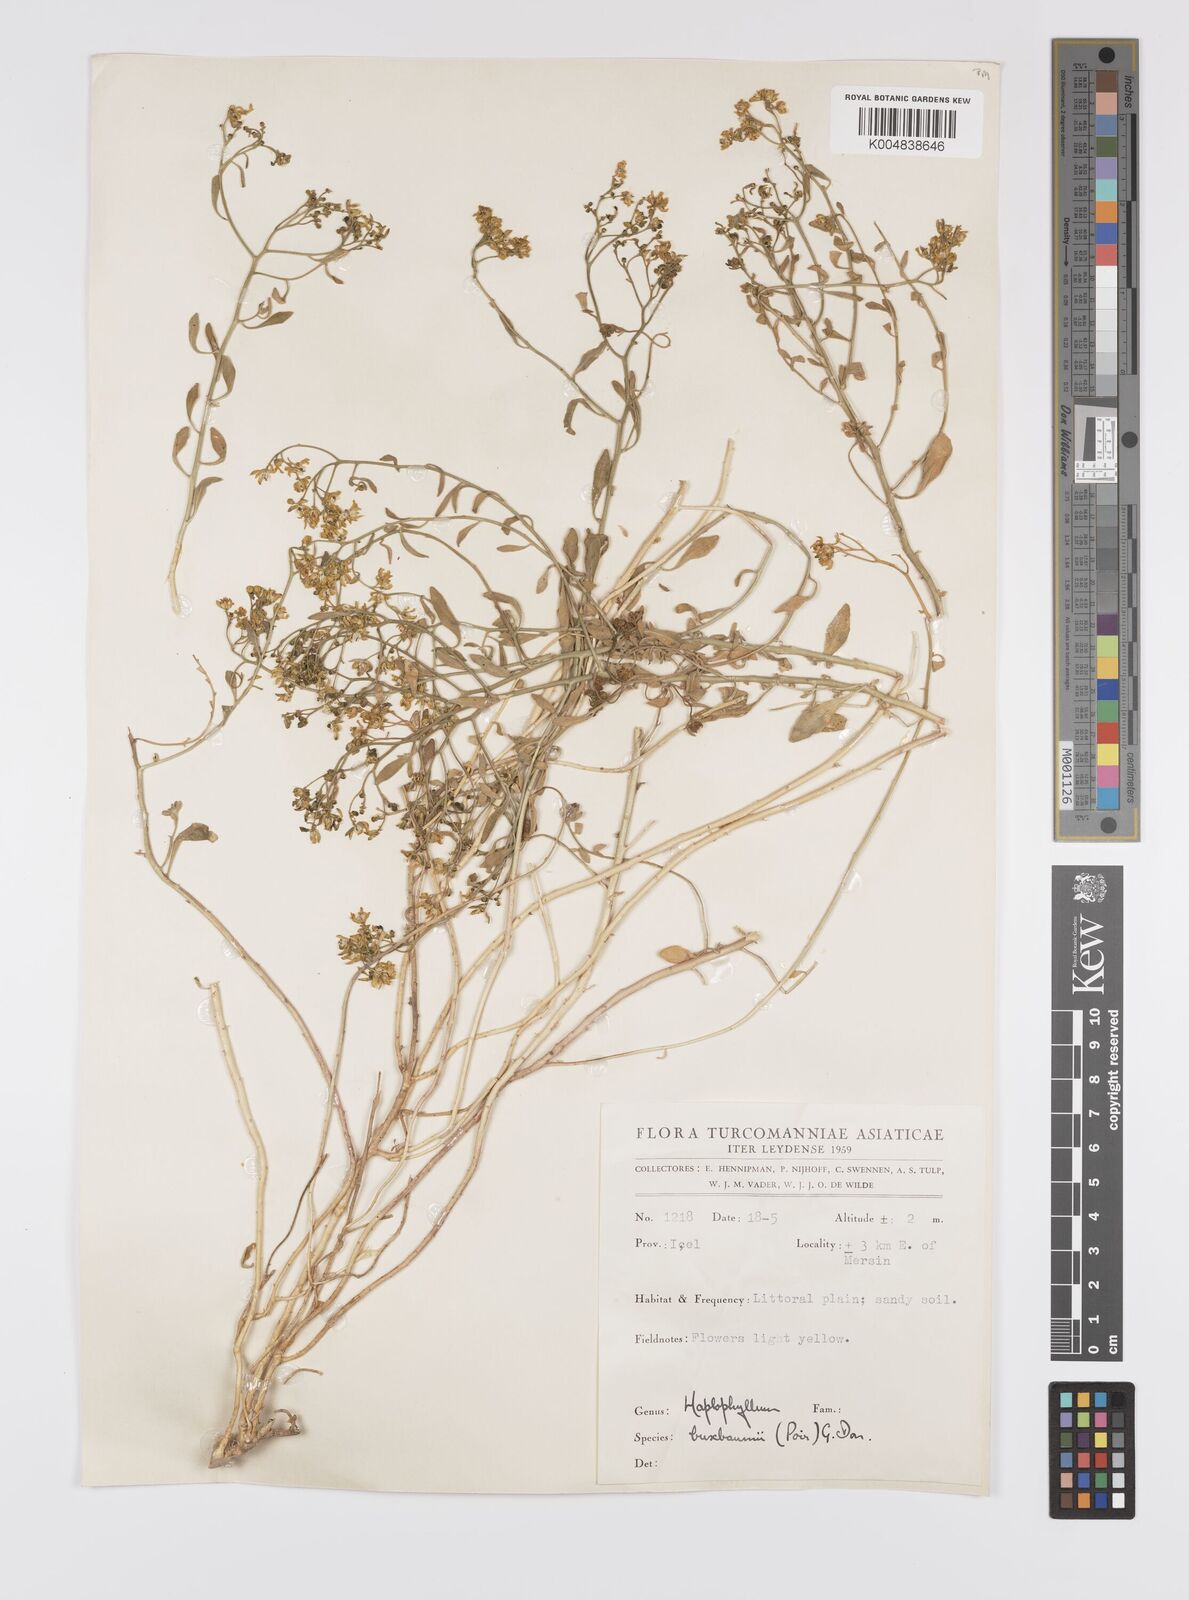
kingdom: Plantae
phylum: Tracheophyta
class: Magnoliopsida
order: Sapindales
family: Rutaceae
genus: Haplophyllum
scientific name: Haplophyllum
